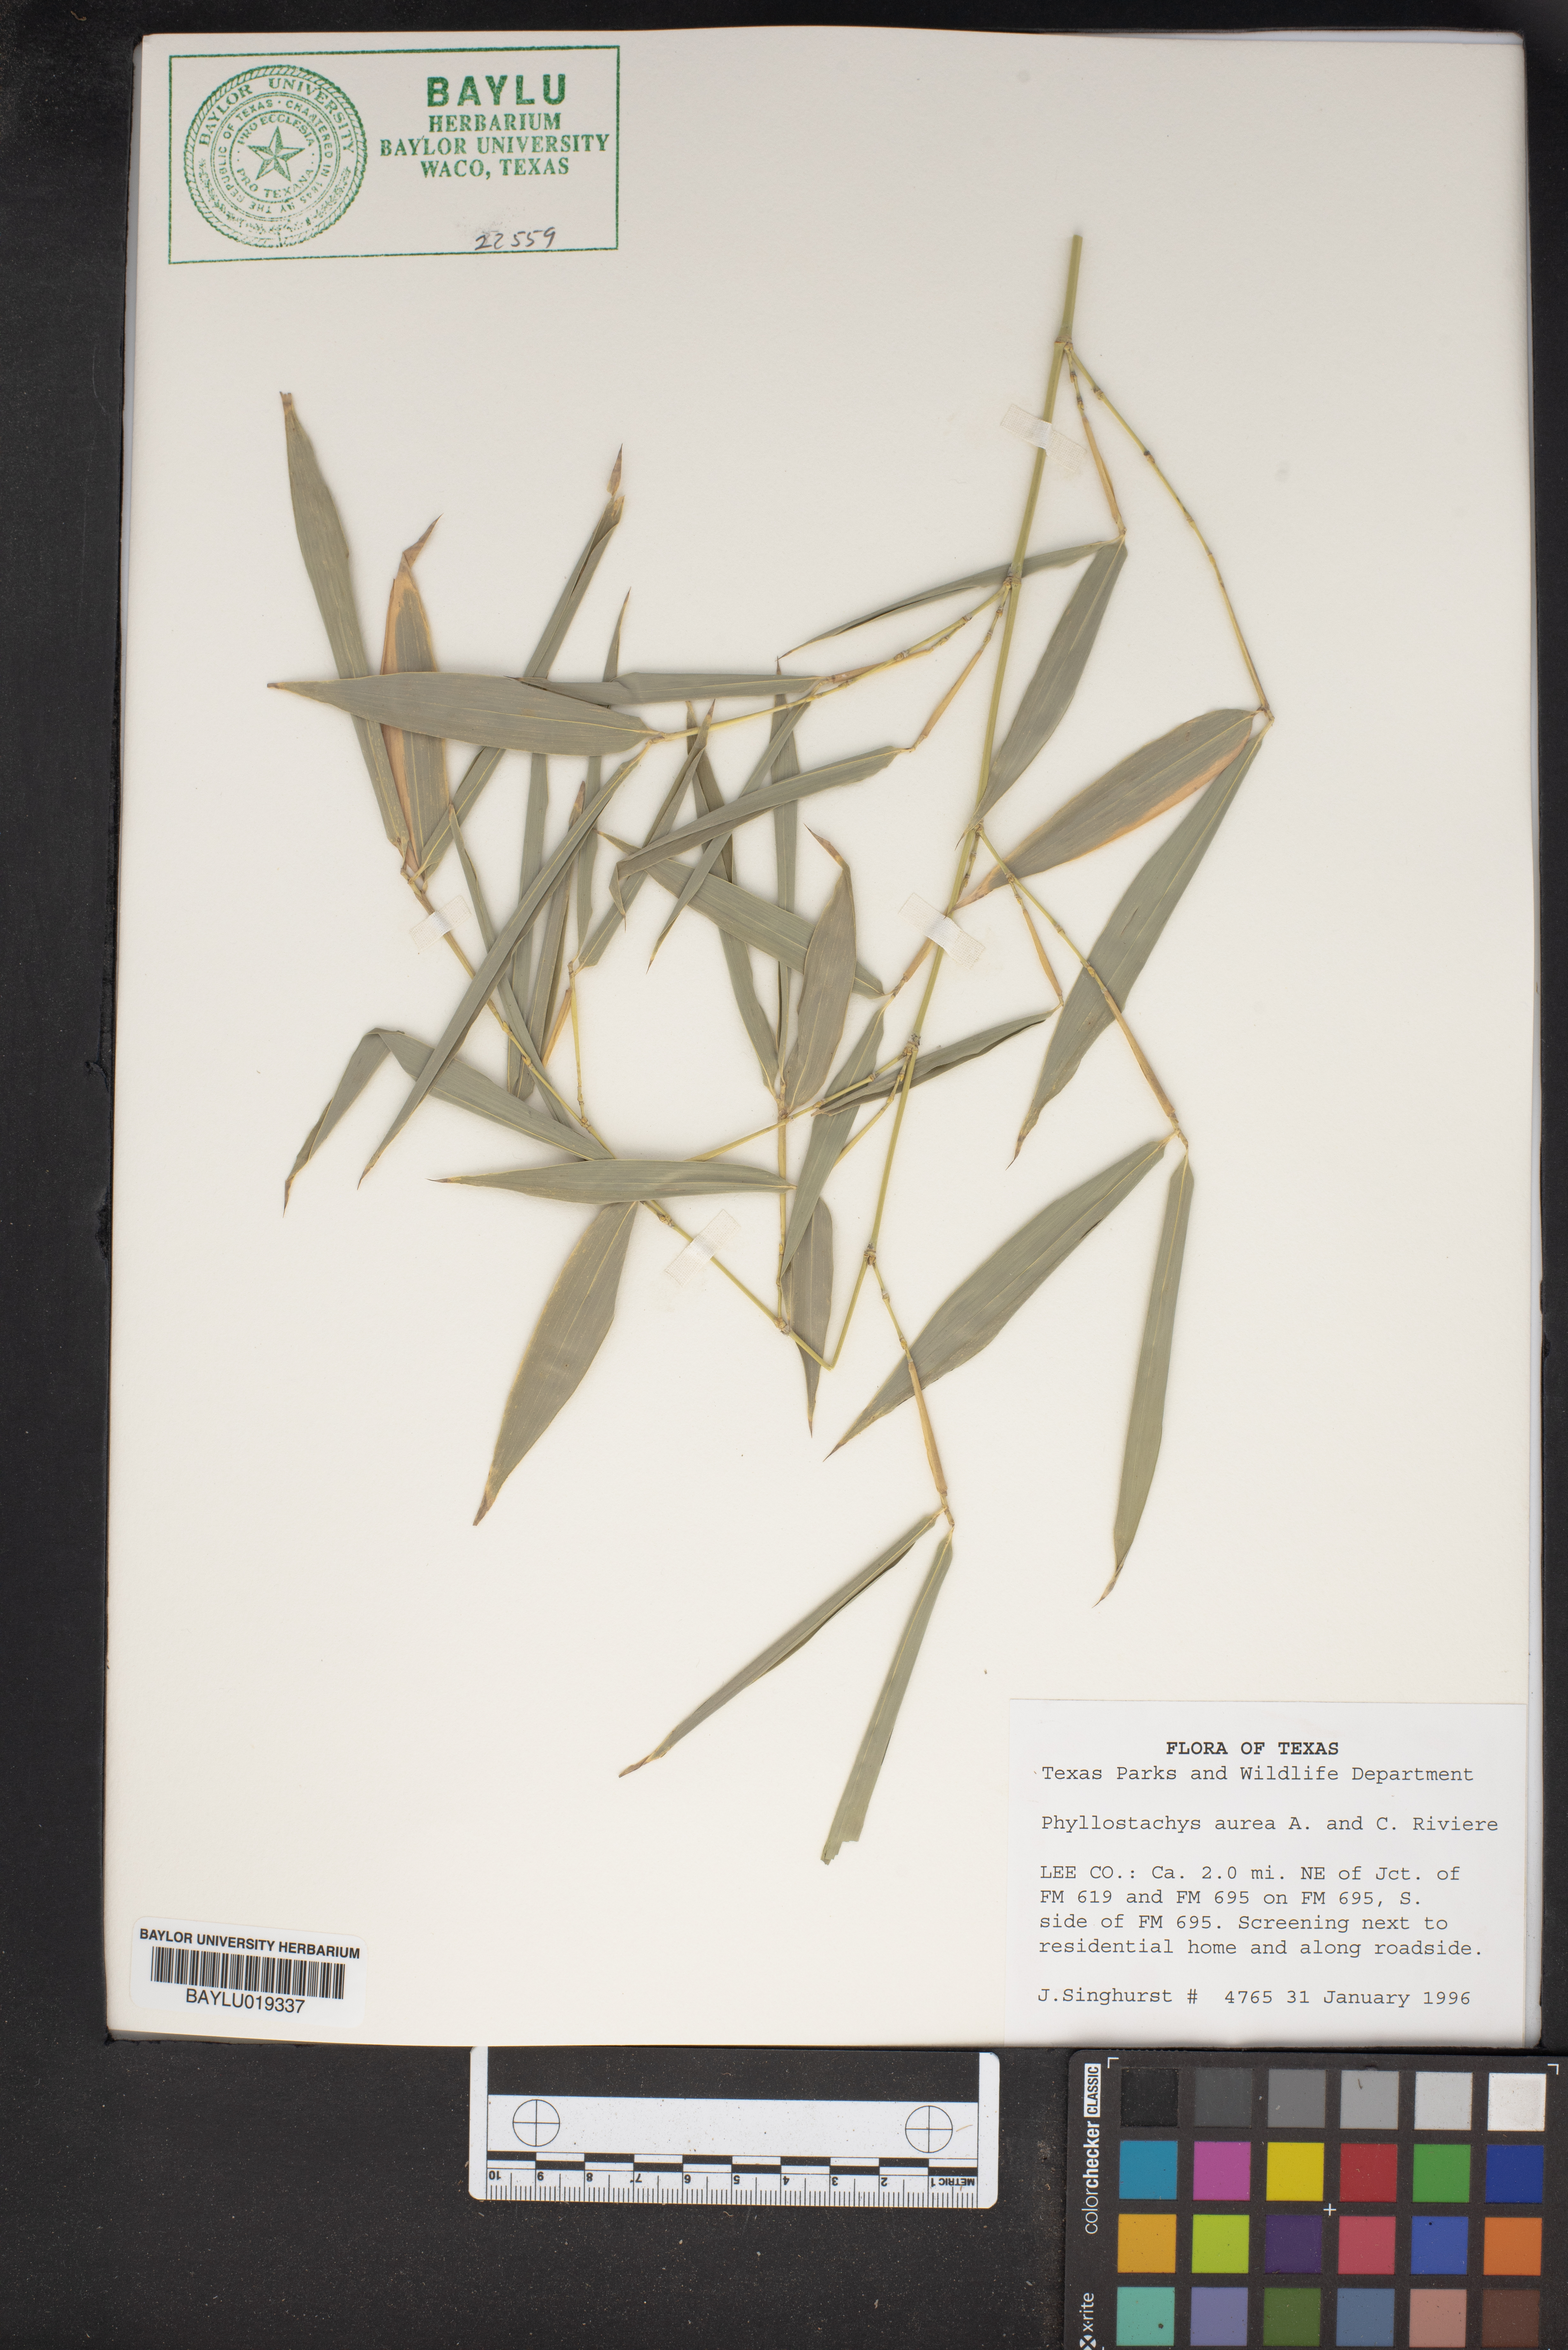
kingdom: Plantae
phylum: Tracheophyta
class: Liliopsida
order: Poales
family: Poaceae
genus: Phyllostachys
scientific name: Phyllostachys aurea
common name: Golden bamboo
